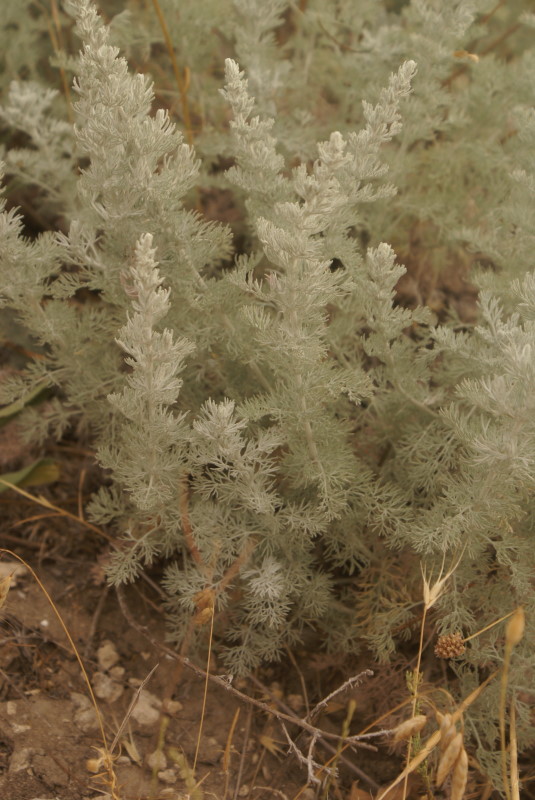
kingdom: Plantae
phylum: Tracheophyta
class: Magnoliopsida
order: Asterales
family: Asteraceae
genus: Artemisia
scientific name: Artemisia
